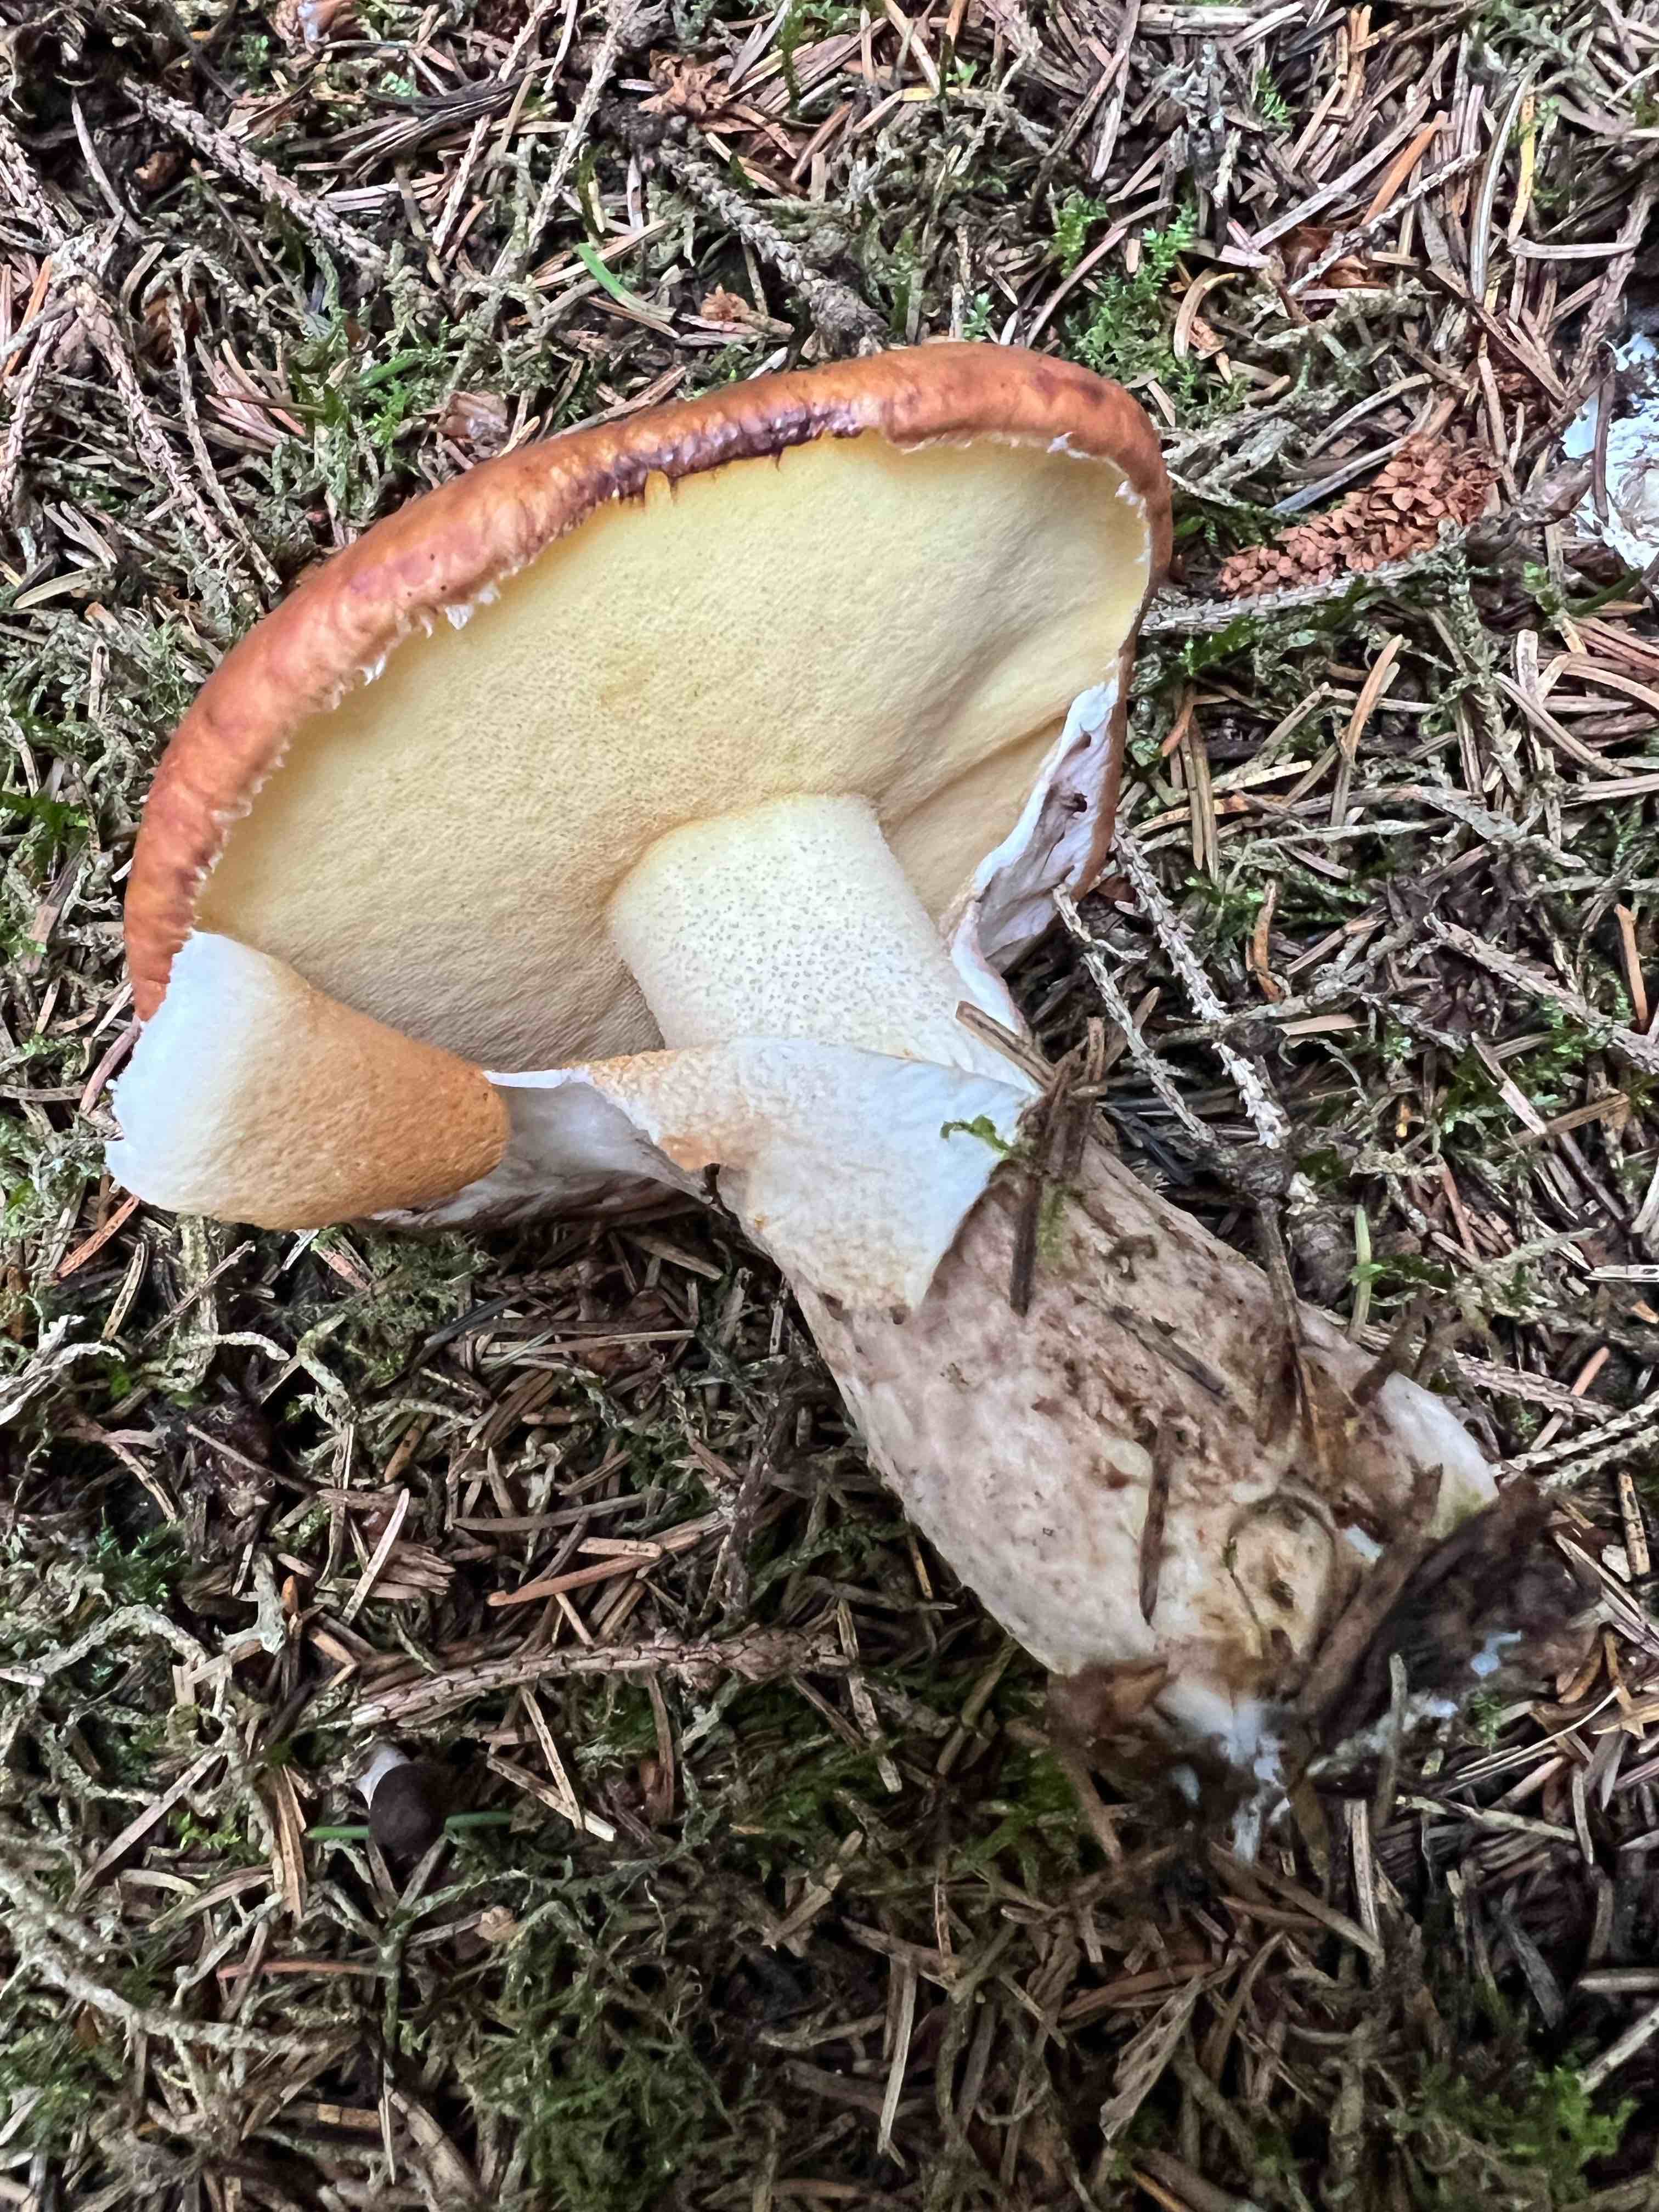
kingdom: Fungi
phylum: Basidiomycota
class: Agaricomycetes
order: Boletales
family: Suillaceae
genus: Suillus
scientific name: Suillus luteus
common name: brungul slimrørhat
